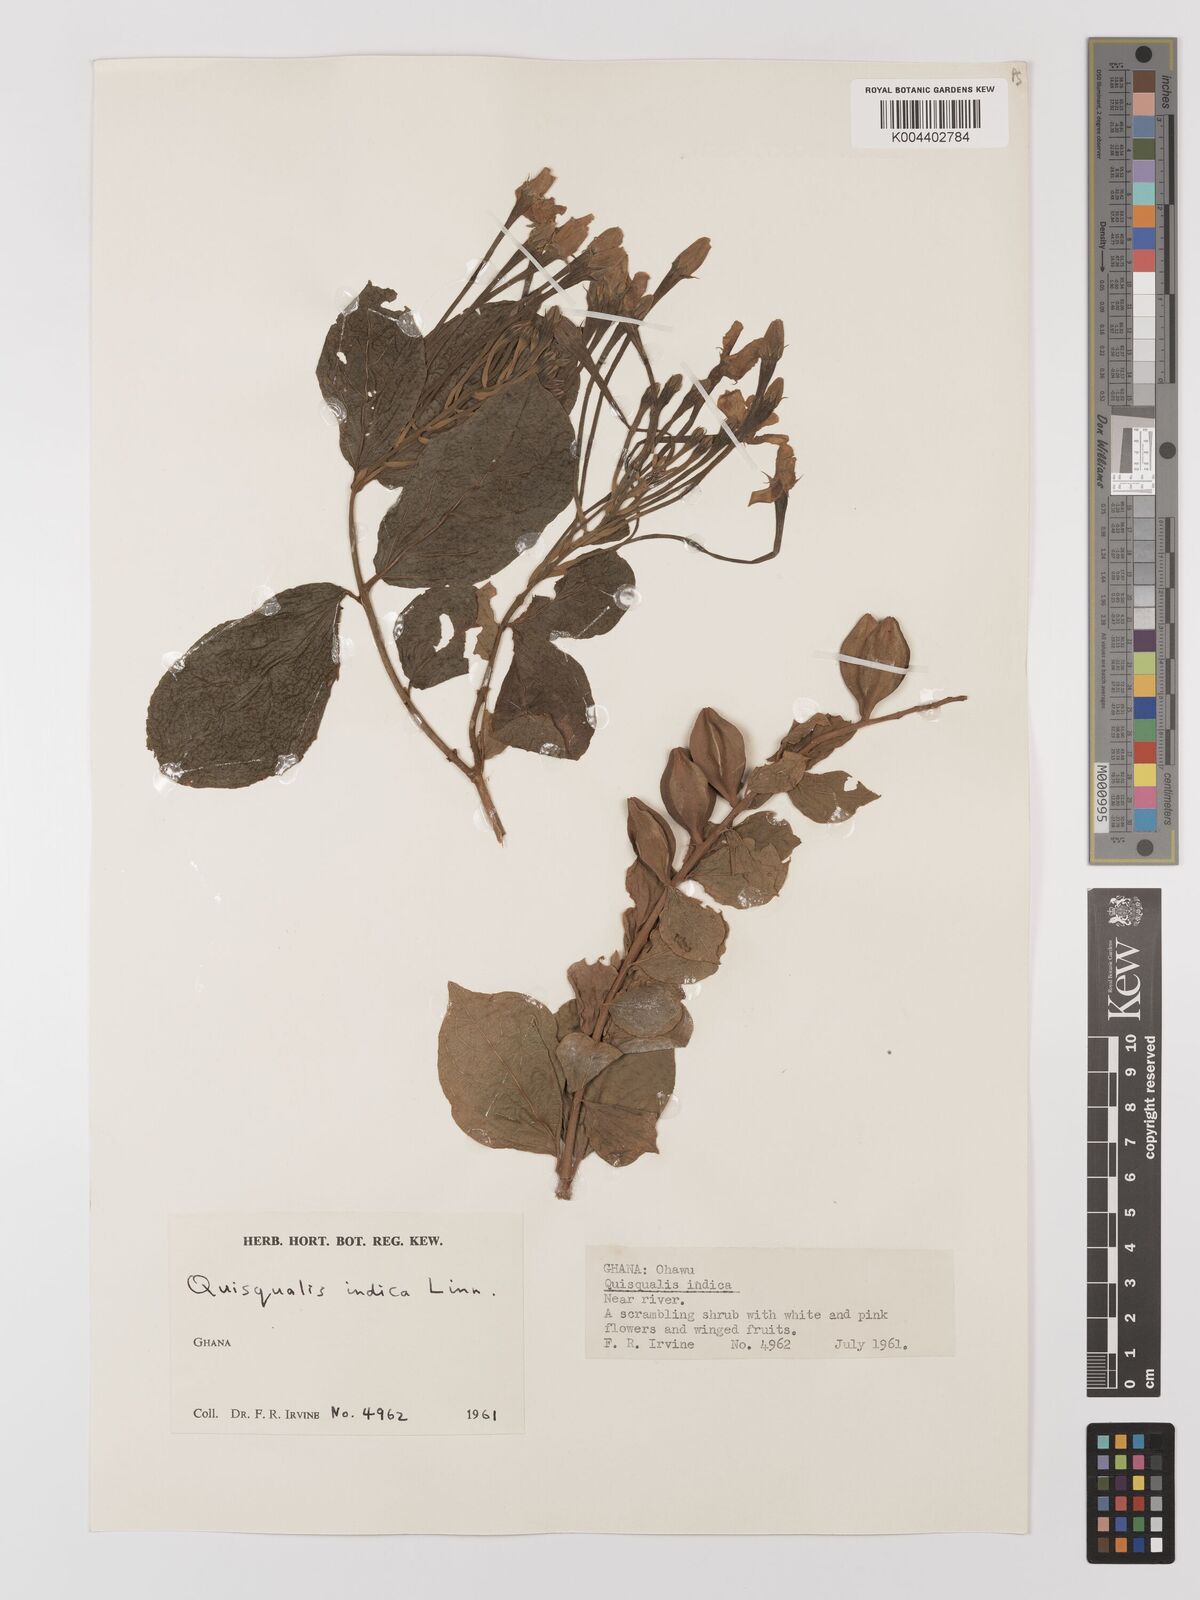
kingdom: Plantae
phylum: Tracheophyta
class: Magnoliopsida
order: Myrtales
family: Combretaceae
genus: Combretum
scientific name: Combretum
